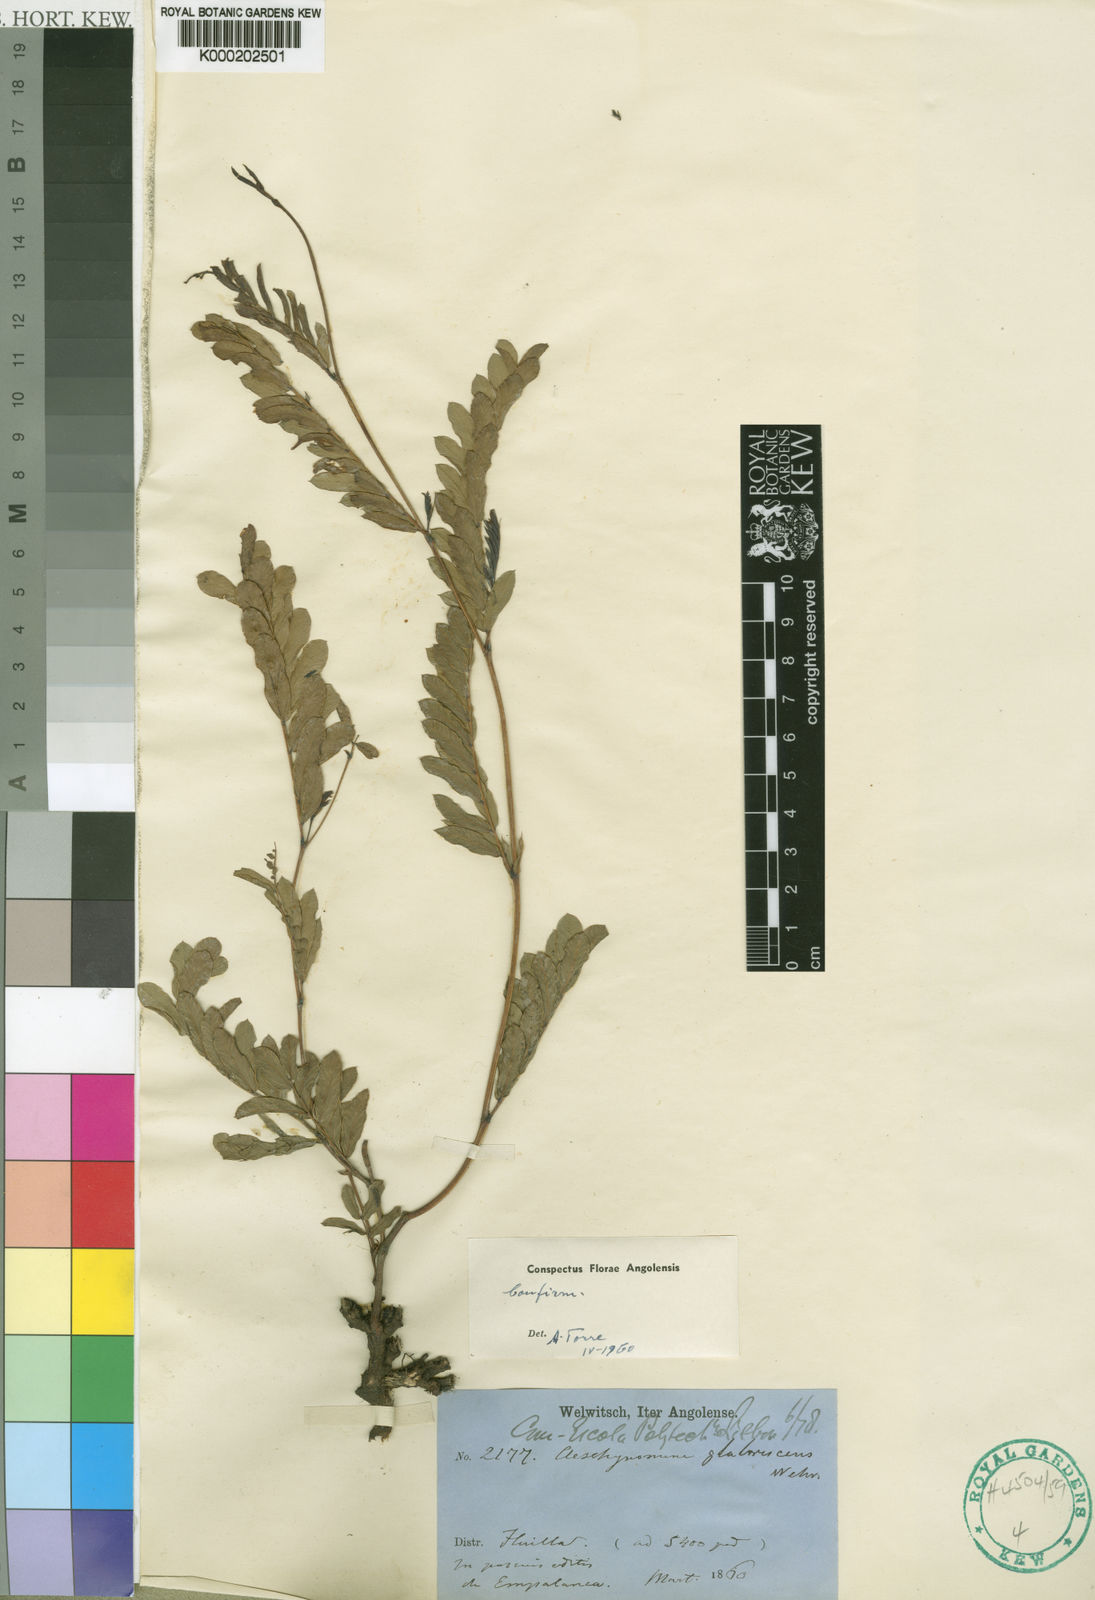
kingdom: Plantae
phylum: Tracheophyta
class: Magnoliopsida
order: Fabales
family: Fabaceae
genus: Aeschynomene
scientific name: Aeschynomene glabrescens
